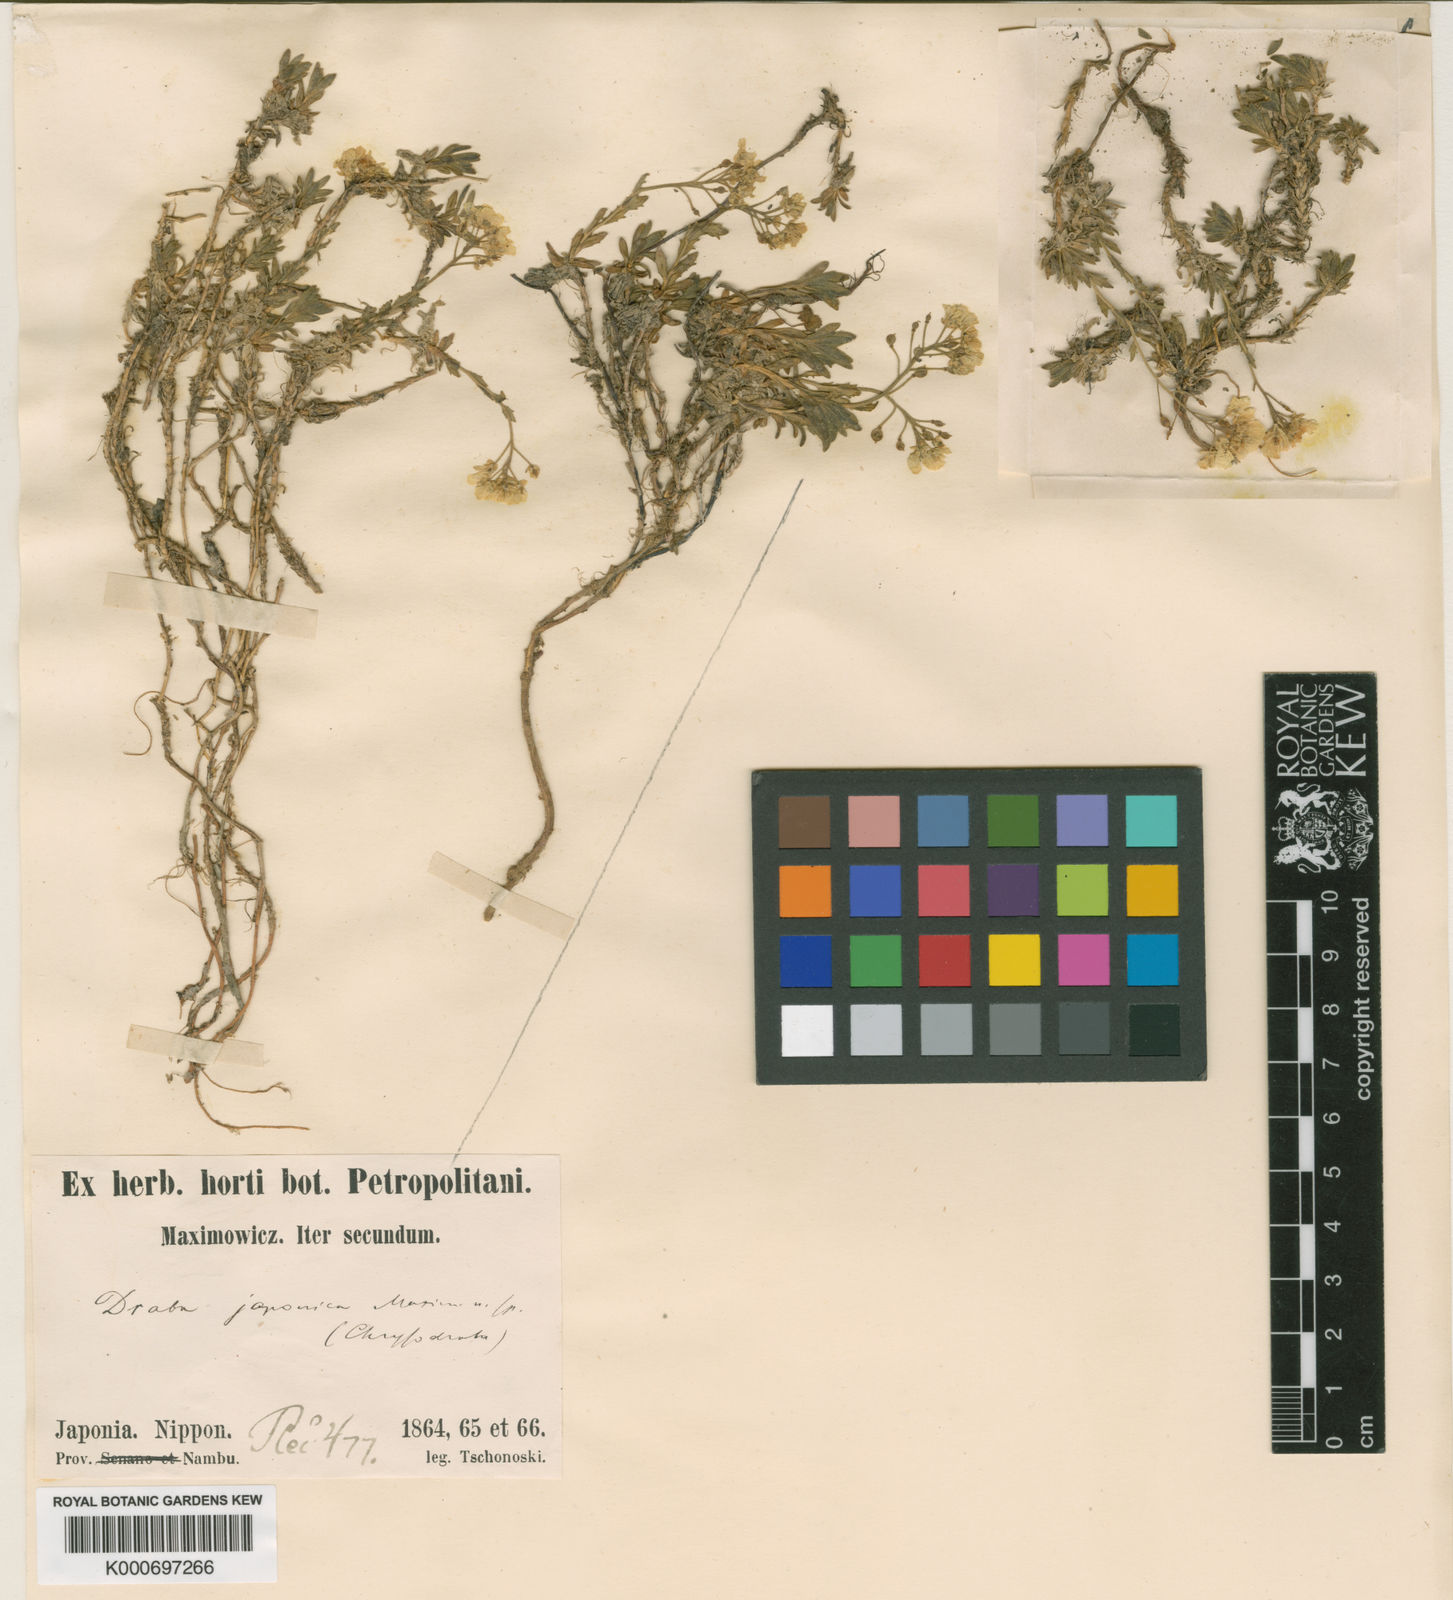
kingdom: Plantae
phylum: Tracheophyta
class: Magnoliopsida
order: Brassicales
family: Brassicaceae
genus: Draba
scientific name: Draba japonica
